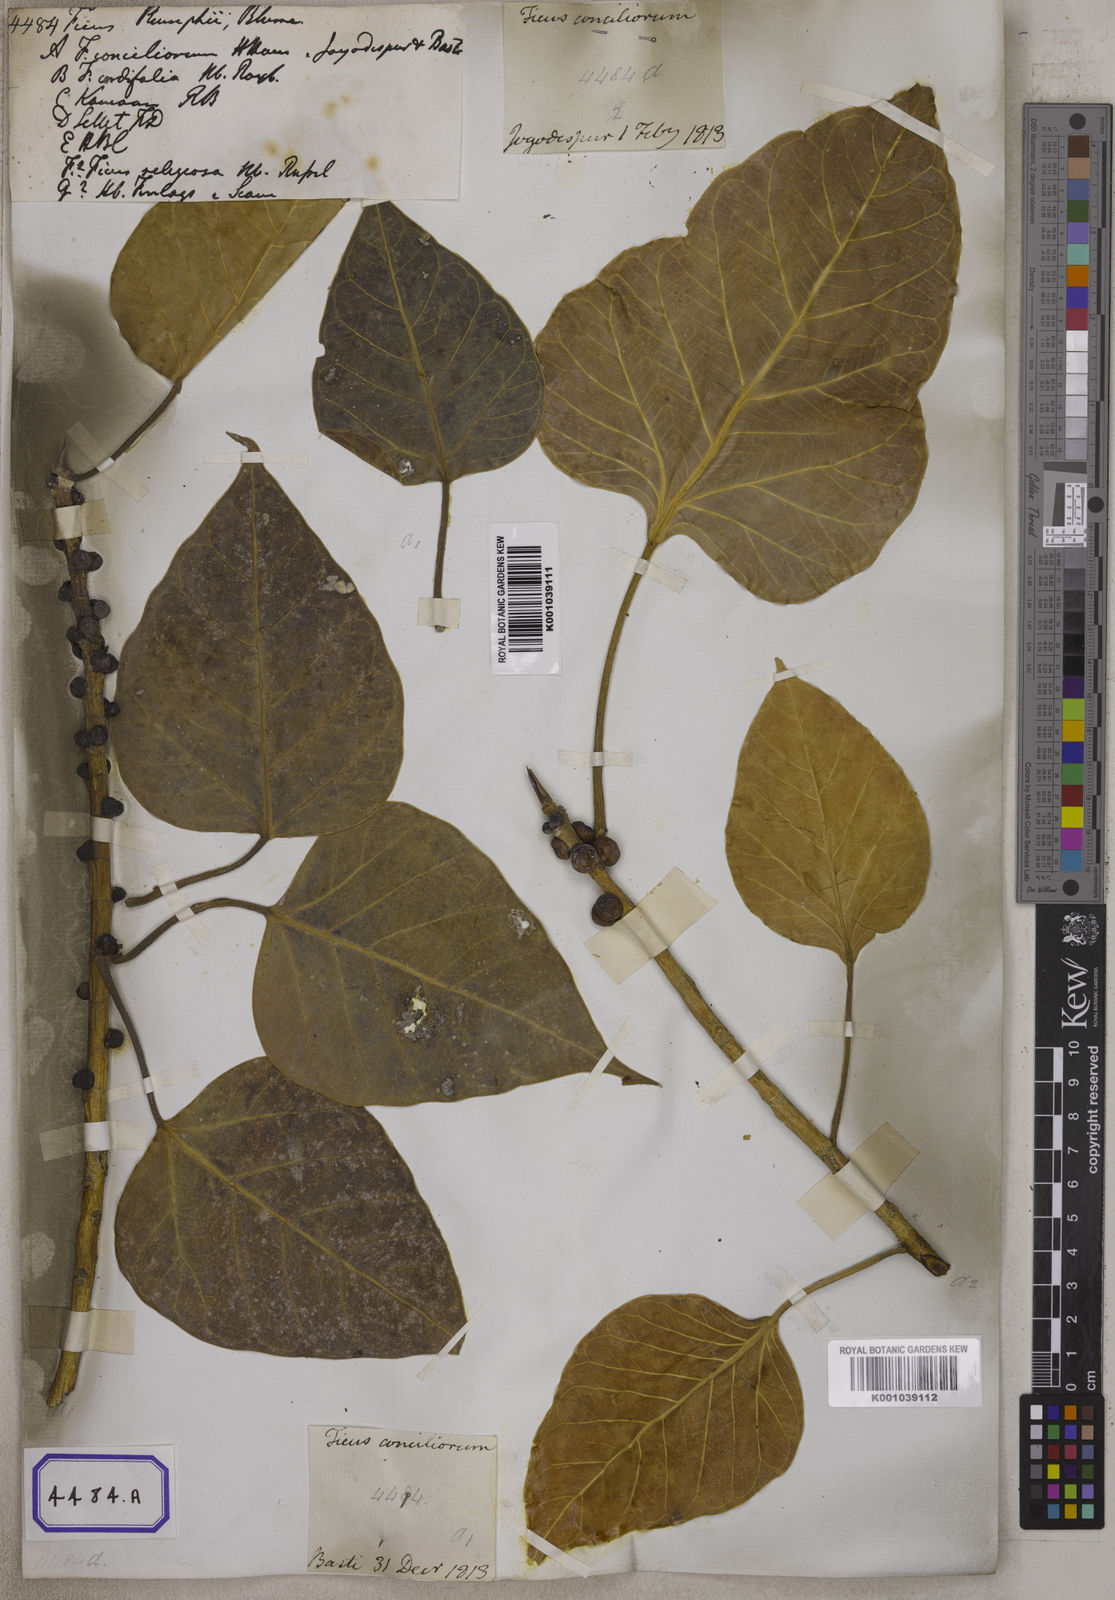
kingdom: Plantae
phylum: Tracheophyta
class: Magnoliopsida
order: Rosales
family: Moraceae
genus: Ficus
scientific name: Ficus rumphii
